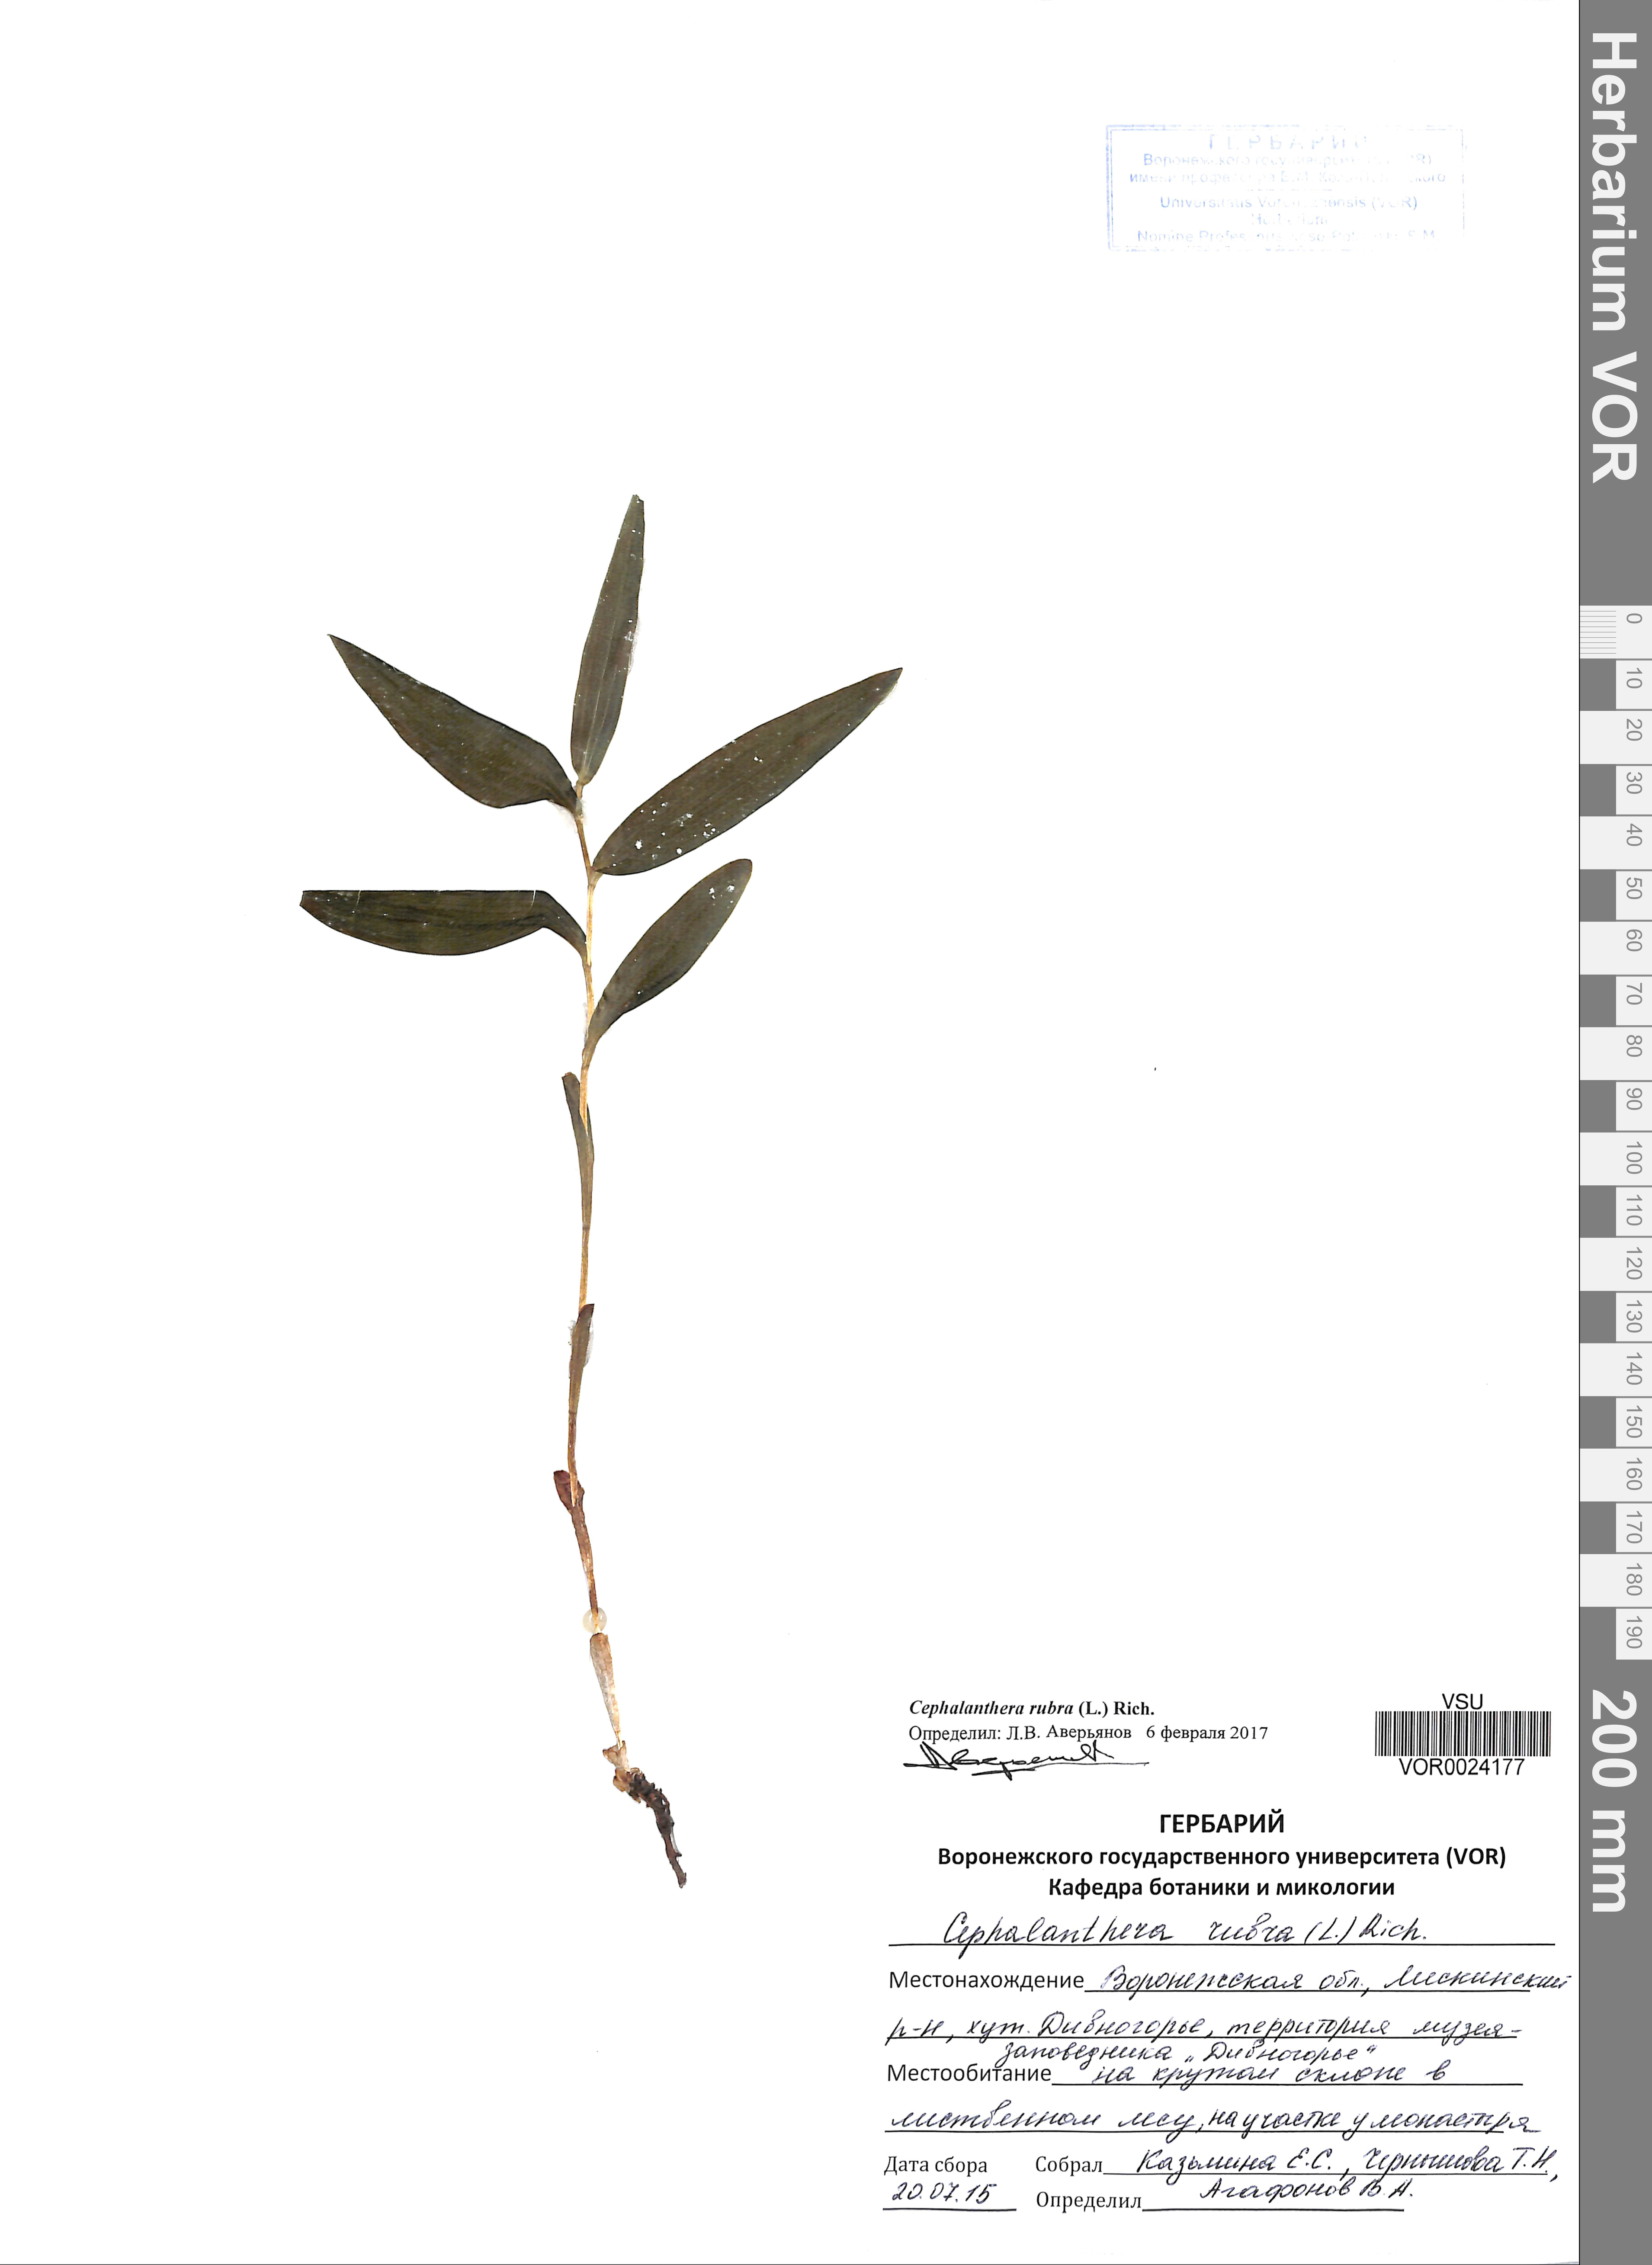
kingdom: Plantae
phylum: Tracheophyta
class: Liliopsida
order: Asparagales
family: Orchidaceae
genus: Cephalanthera
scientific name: Cephalanthera rubra
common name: Red helleborine
